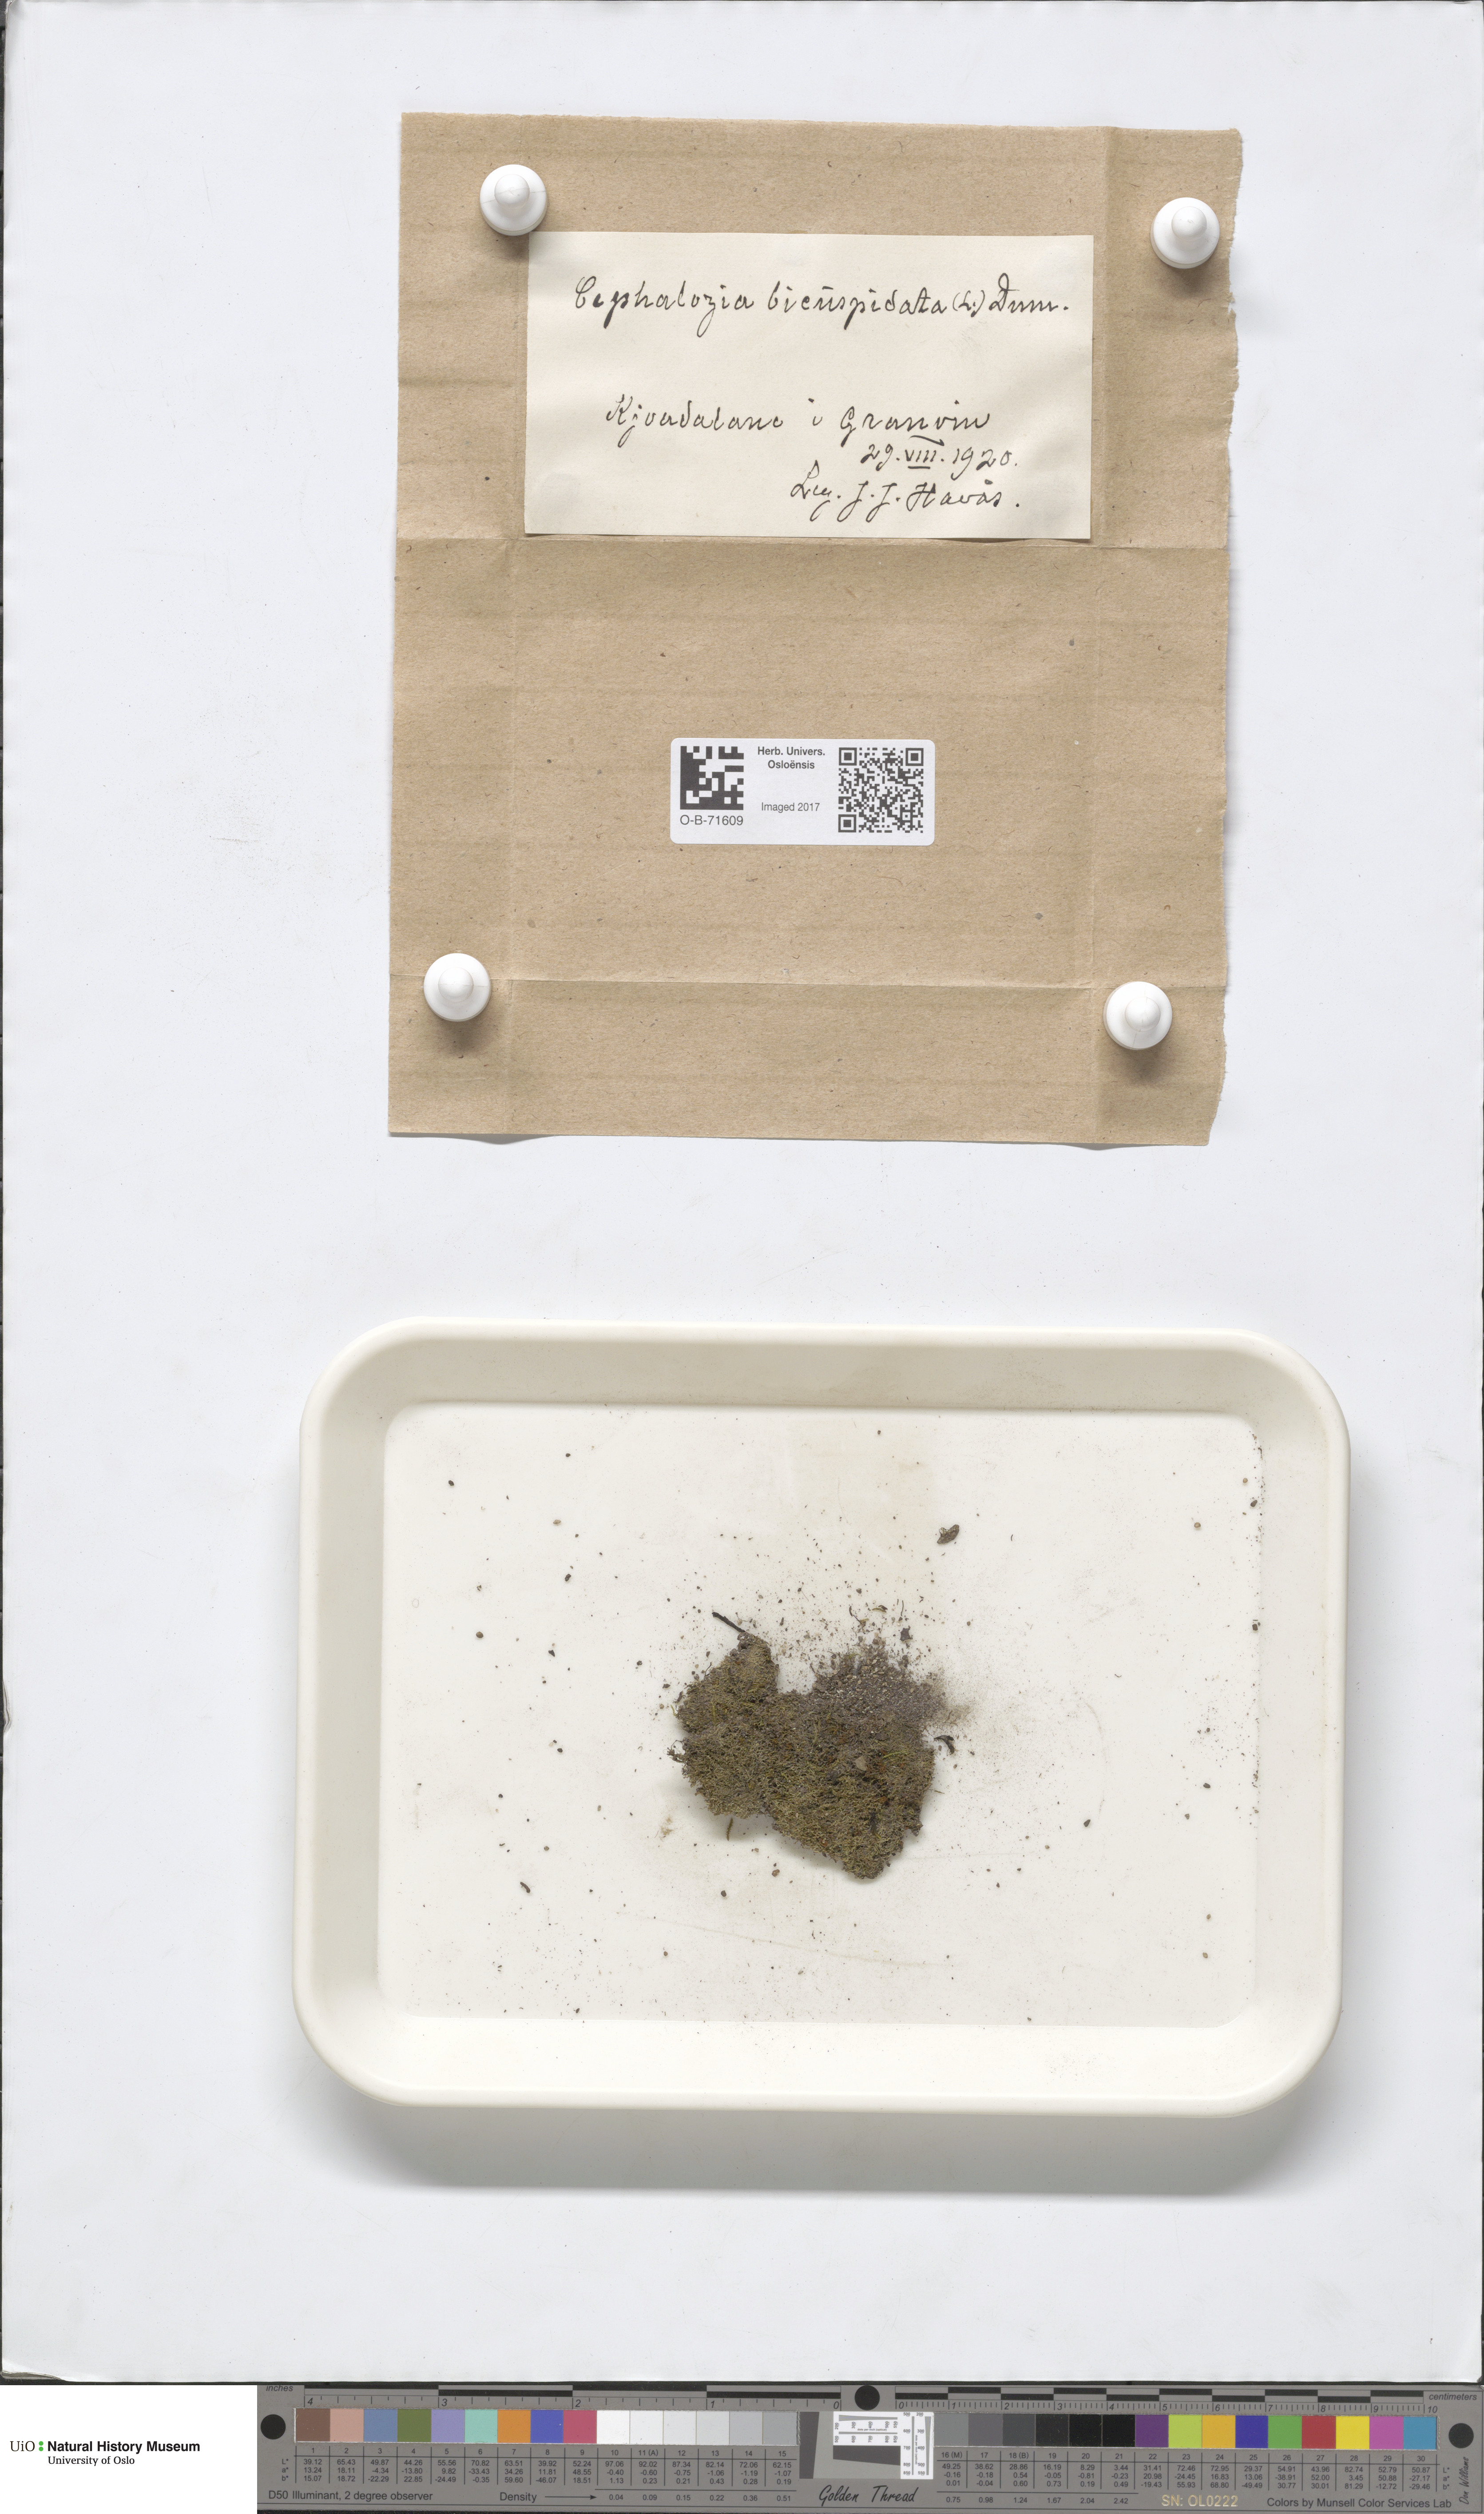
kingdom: Plantae
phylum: Marchantiophyta
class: Jungermanniopsida
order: Jungermanniales
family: Cephaloziaceae
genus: Cephalozia
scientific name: Cephalozia bicuspidata
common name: Two-horned pincerwort
